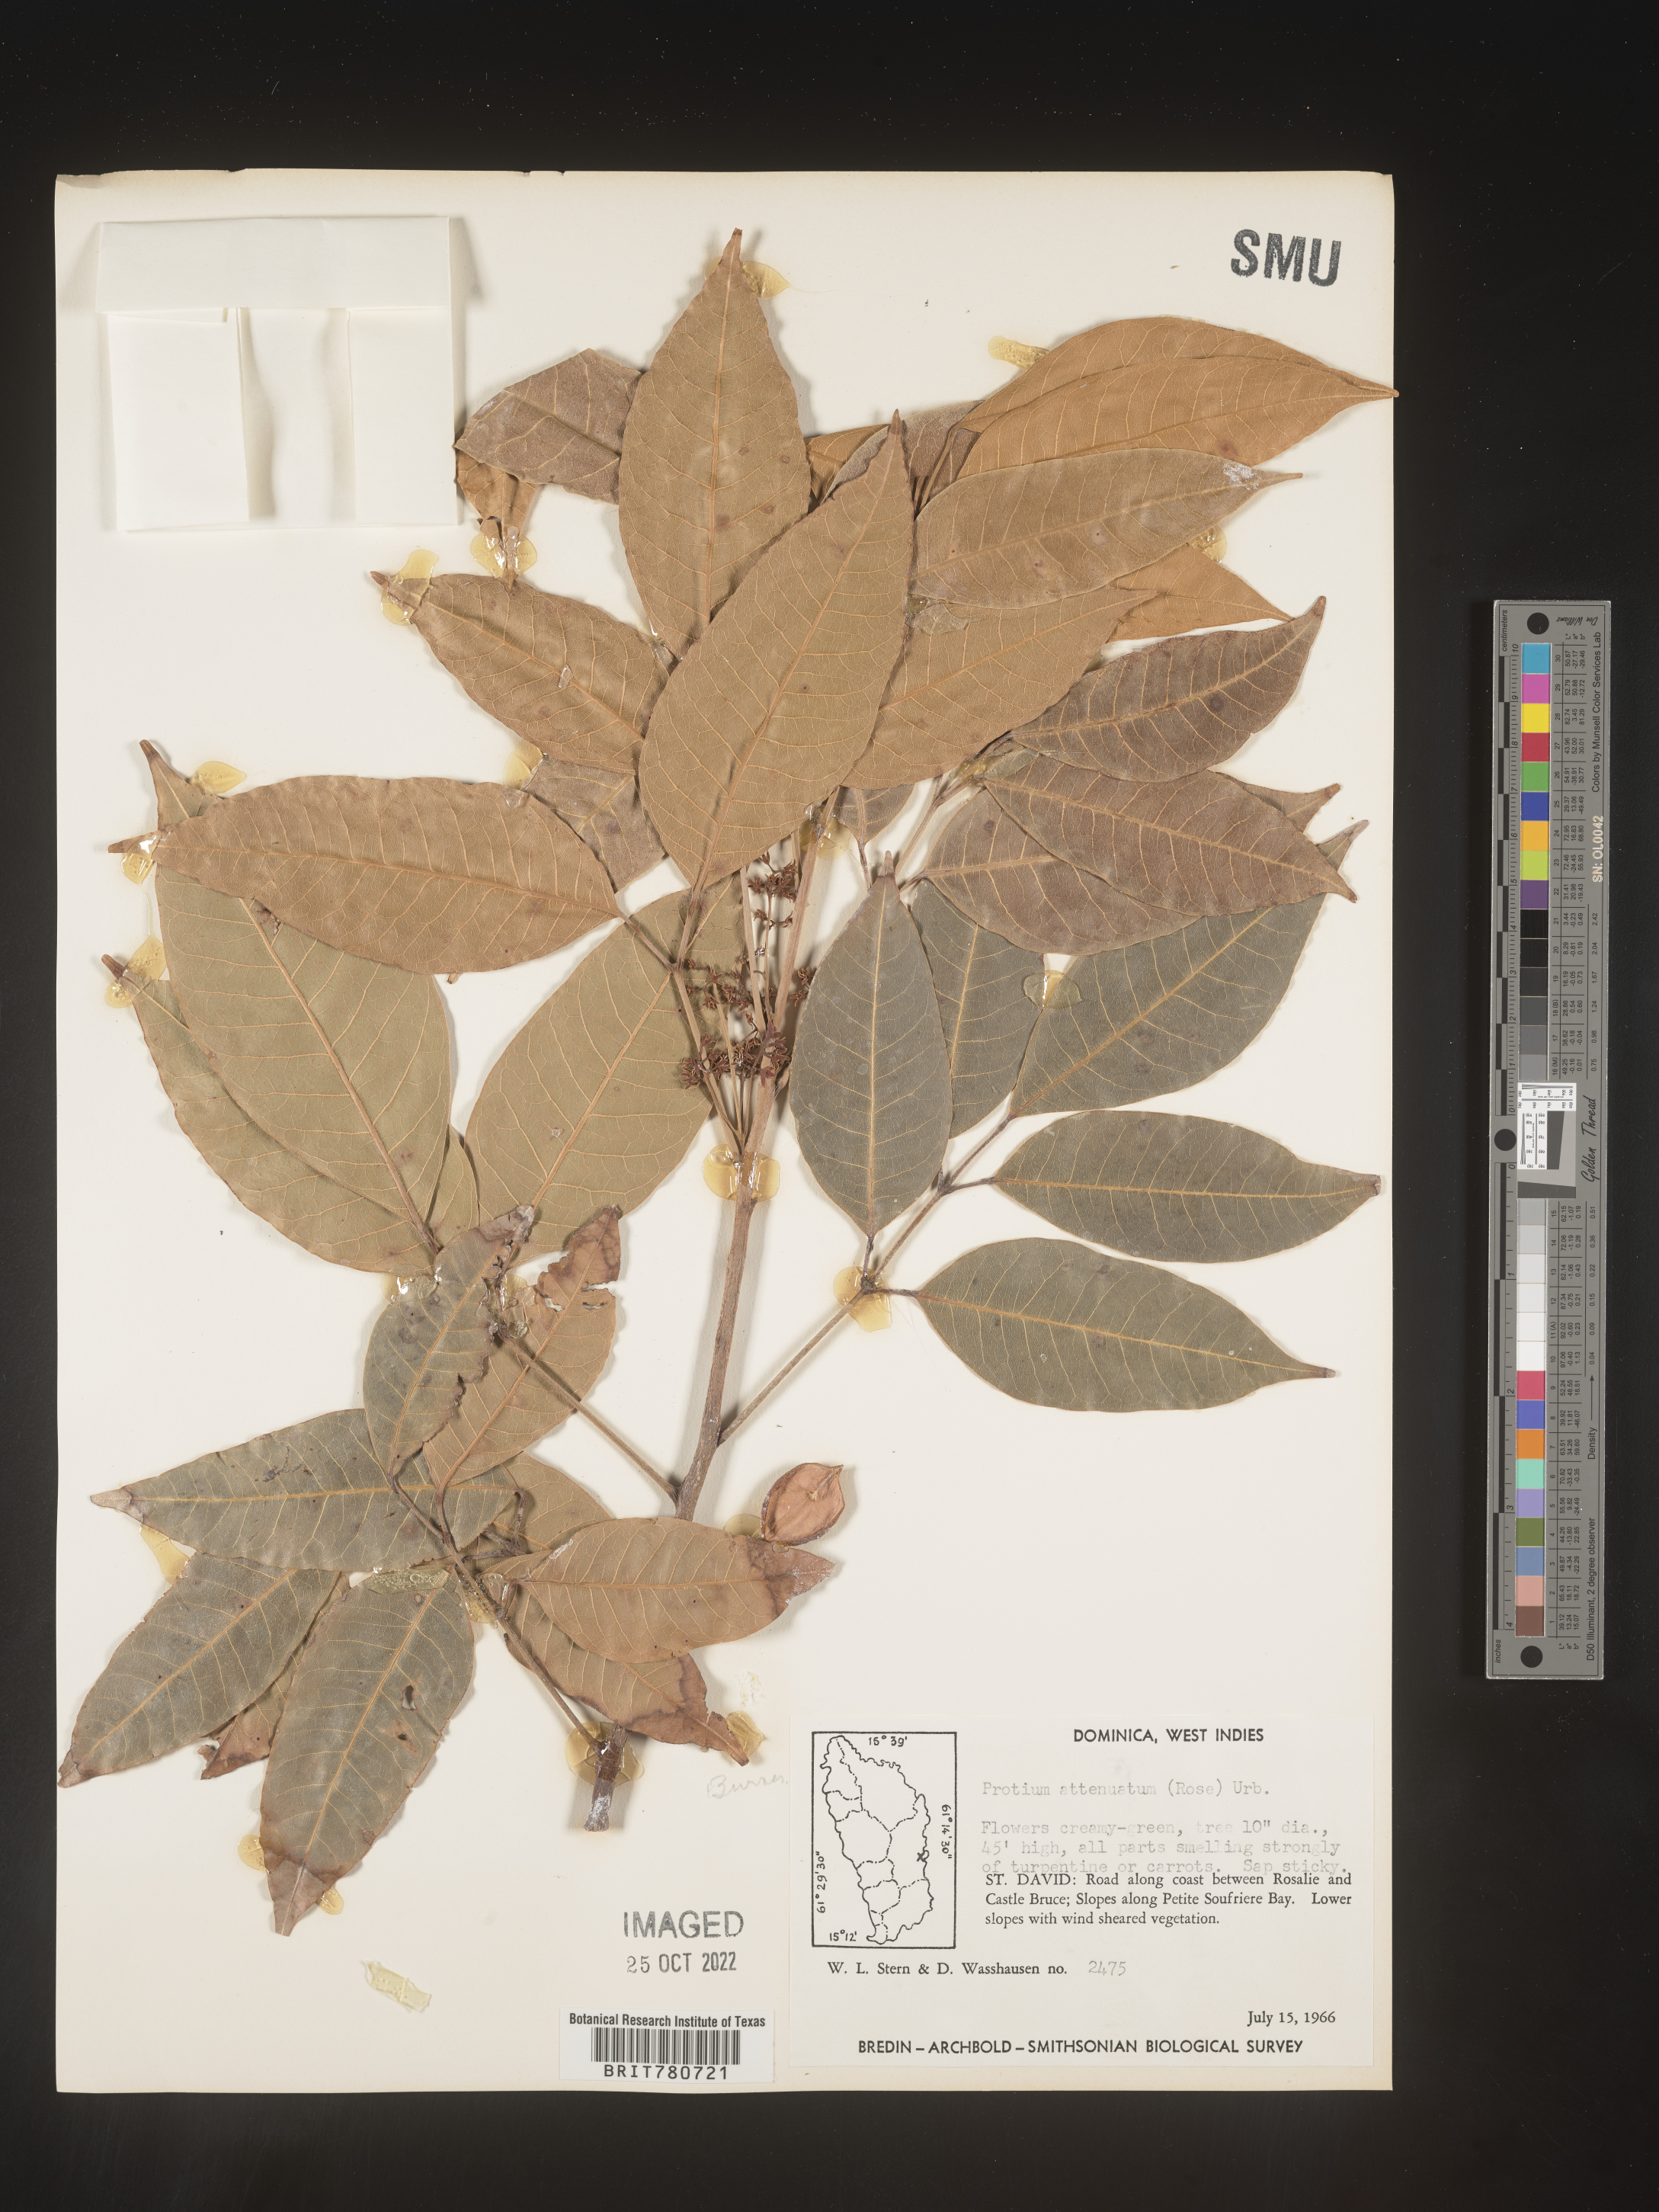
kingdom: Plantae
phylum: Tracheophyta
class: Magnoliopsida
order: Sapindales
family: Burseraceae
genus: Protium
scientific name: Protium
